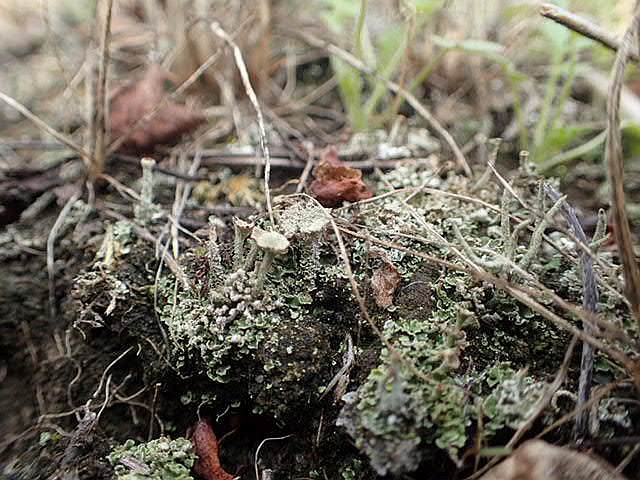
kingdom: Fungi
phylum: Ascomycota
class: Lecanoromycetes
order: Lecanorales
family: Cladoniaceae
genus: Cladonia
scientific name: Cladonia
